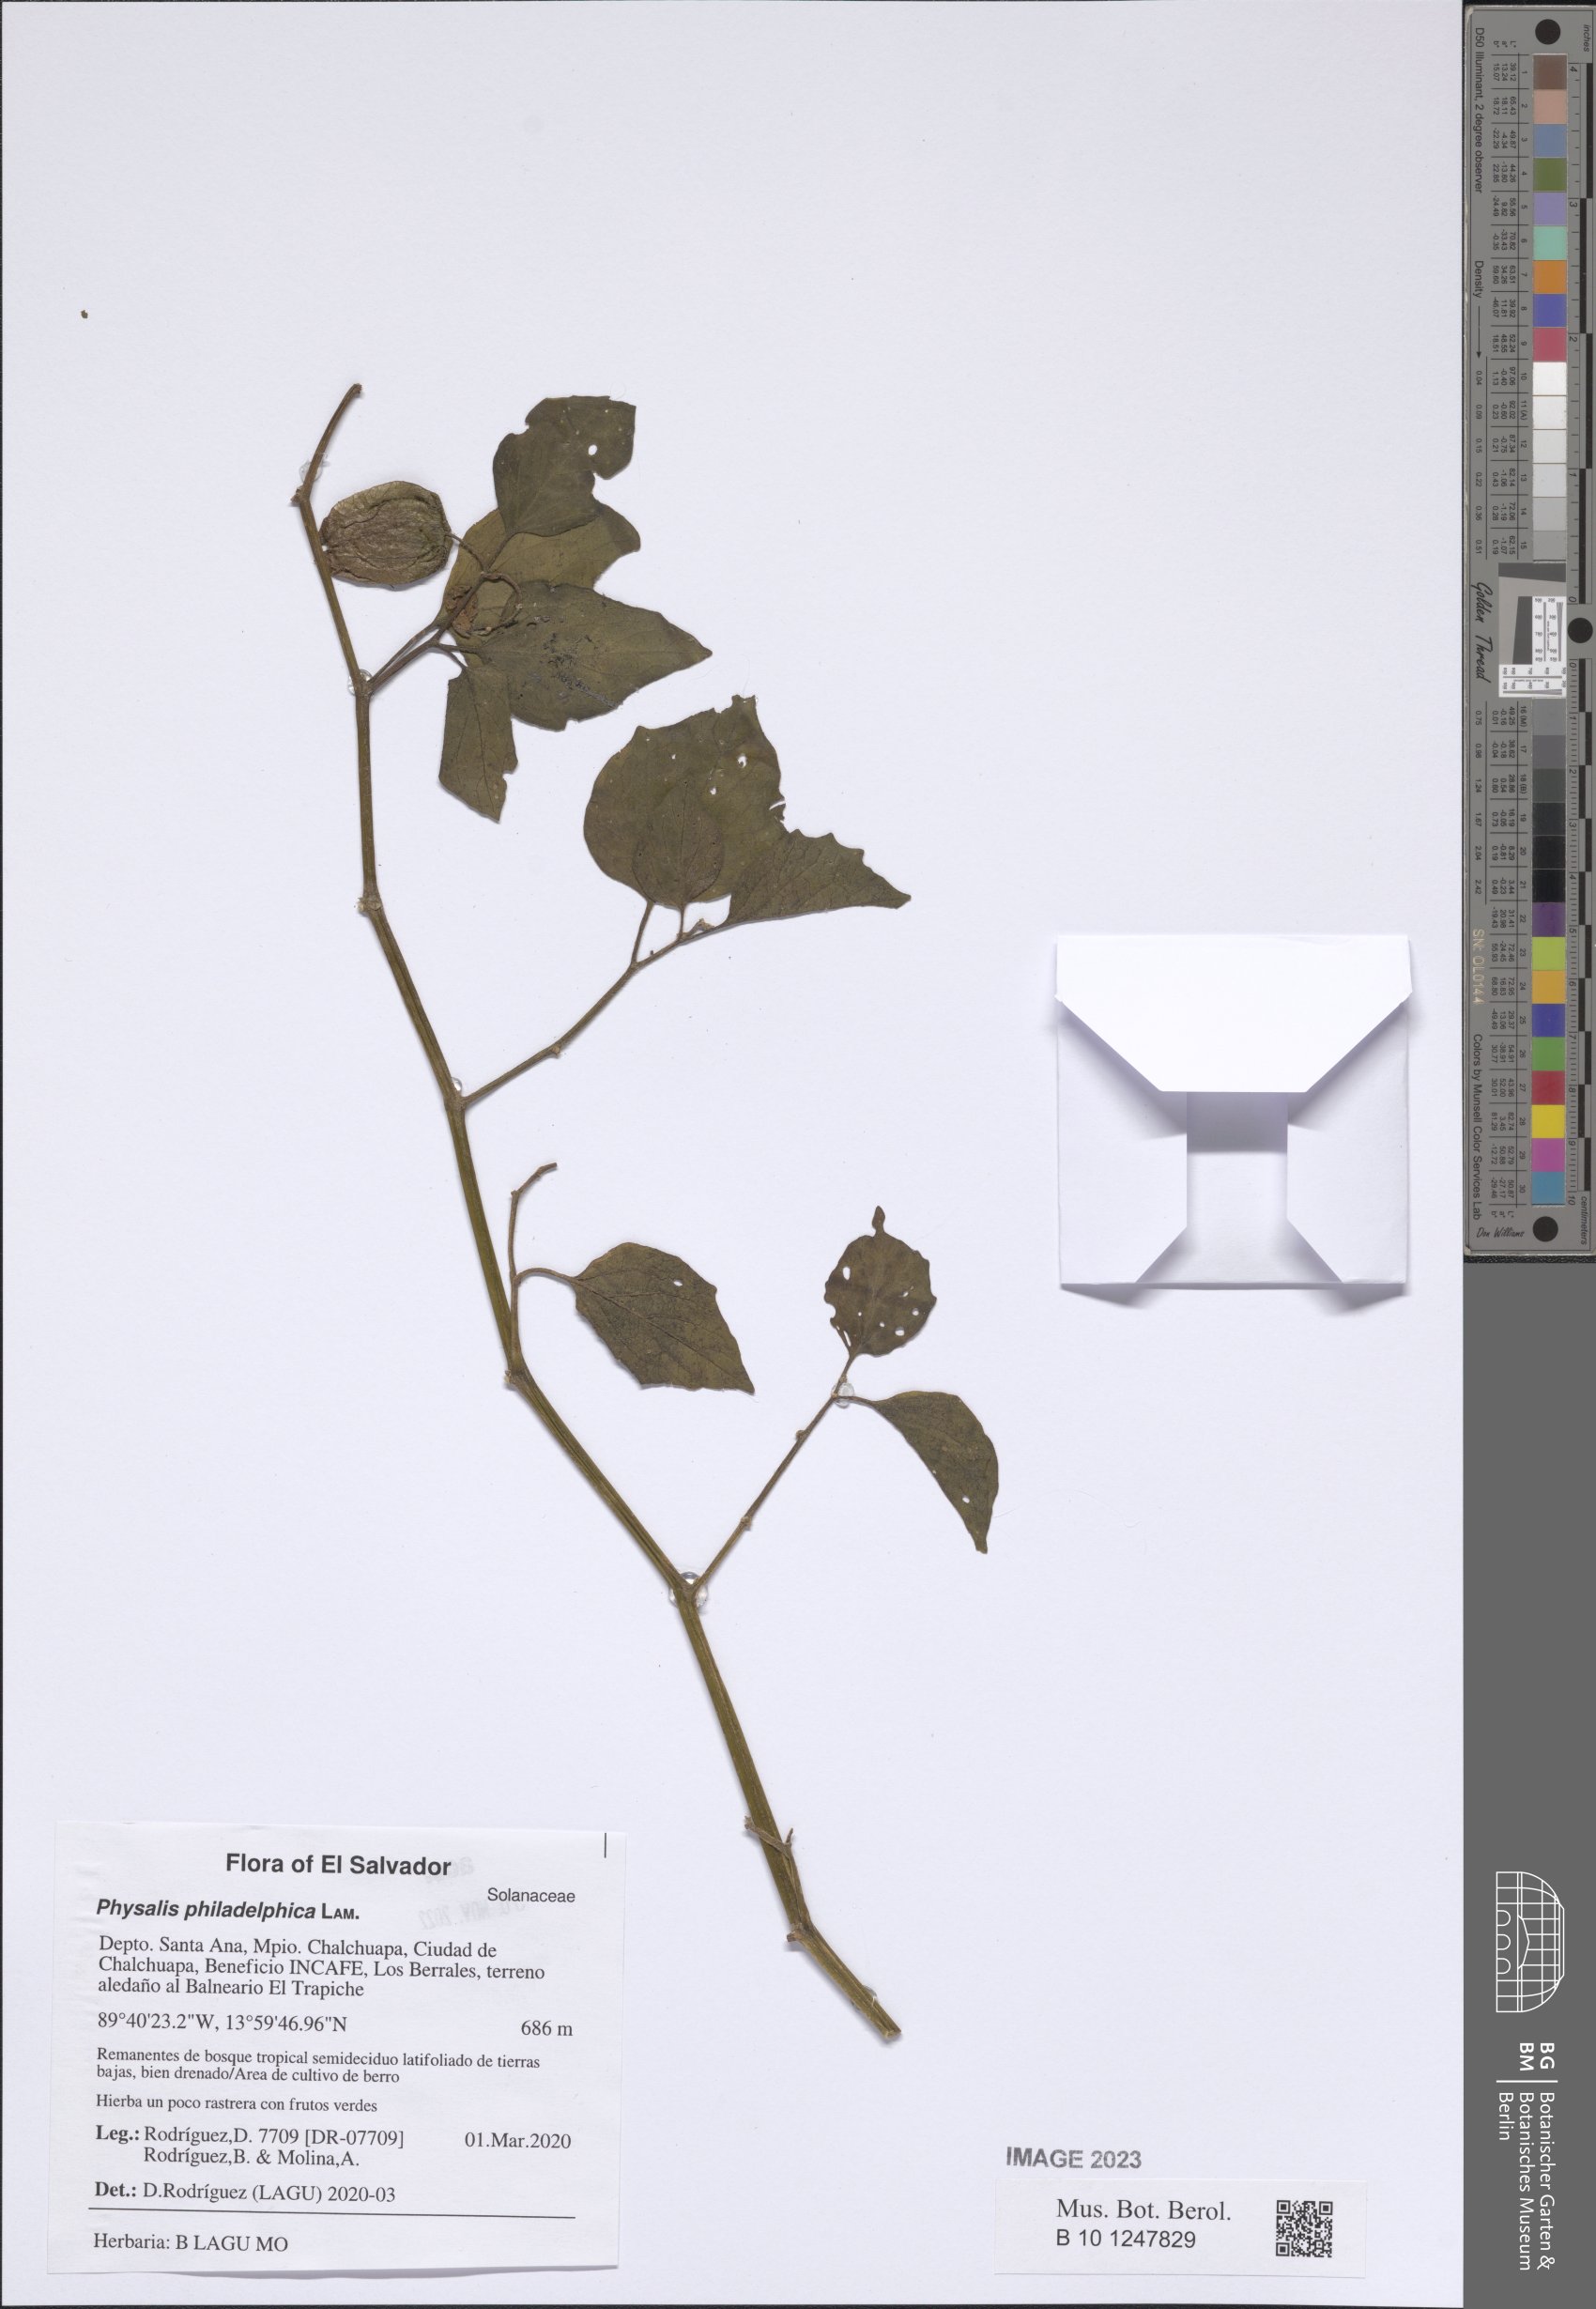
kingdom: Plantae
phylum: Tracheophyta
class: Magnoliopsida
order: Solanales
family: Solanaceae
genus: Physalis
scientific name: Physalis philadelphica
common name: Husk-tomato
